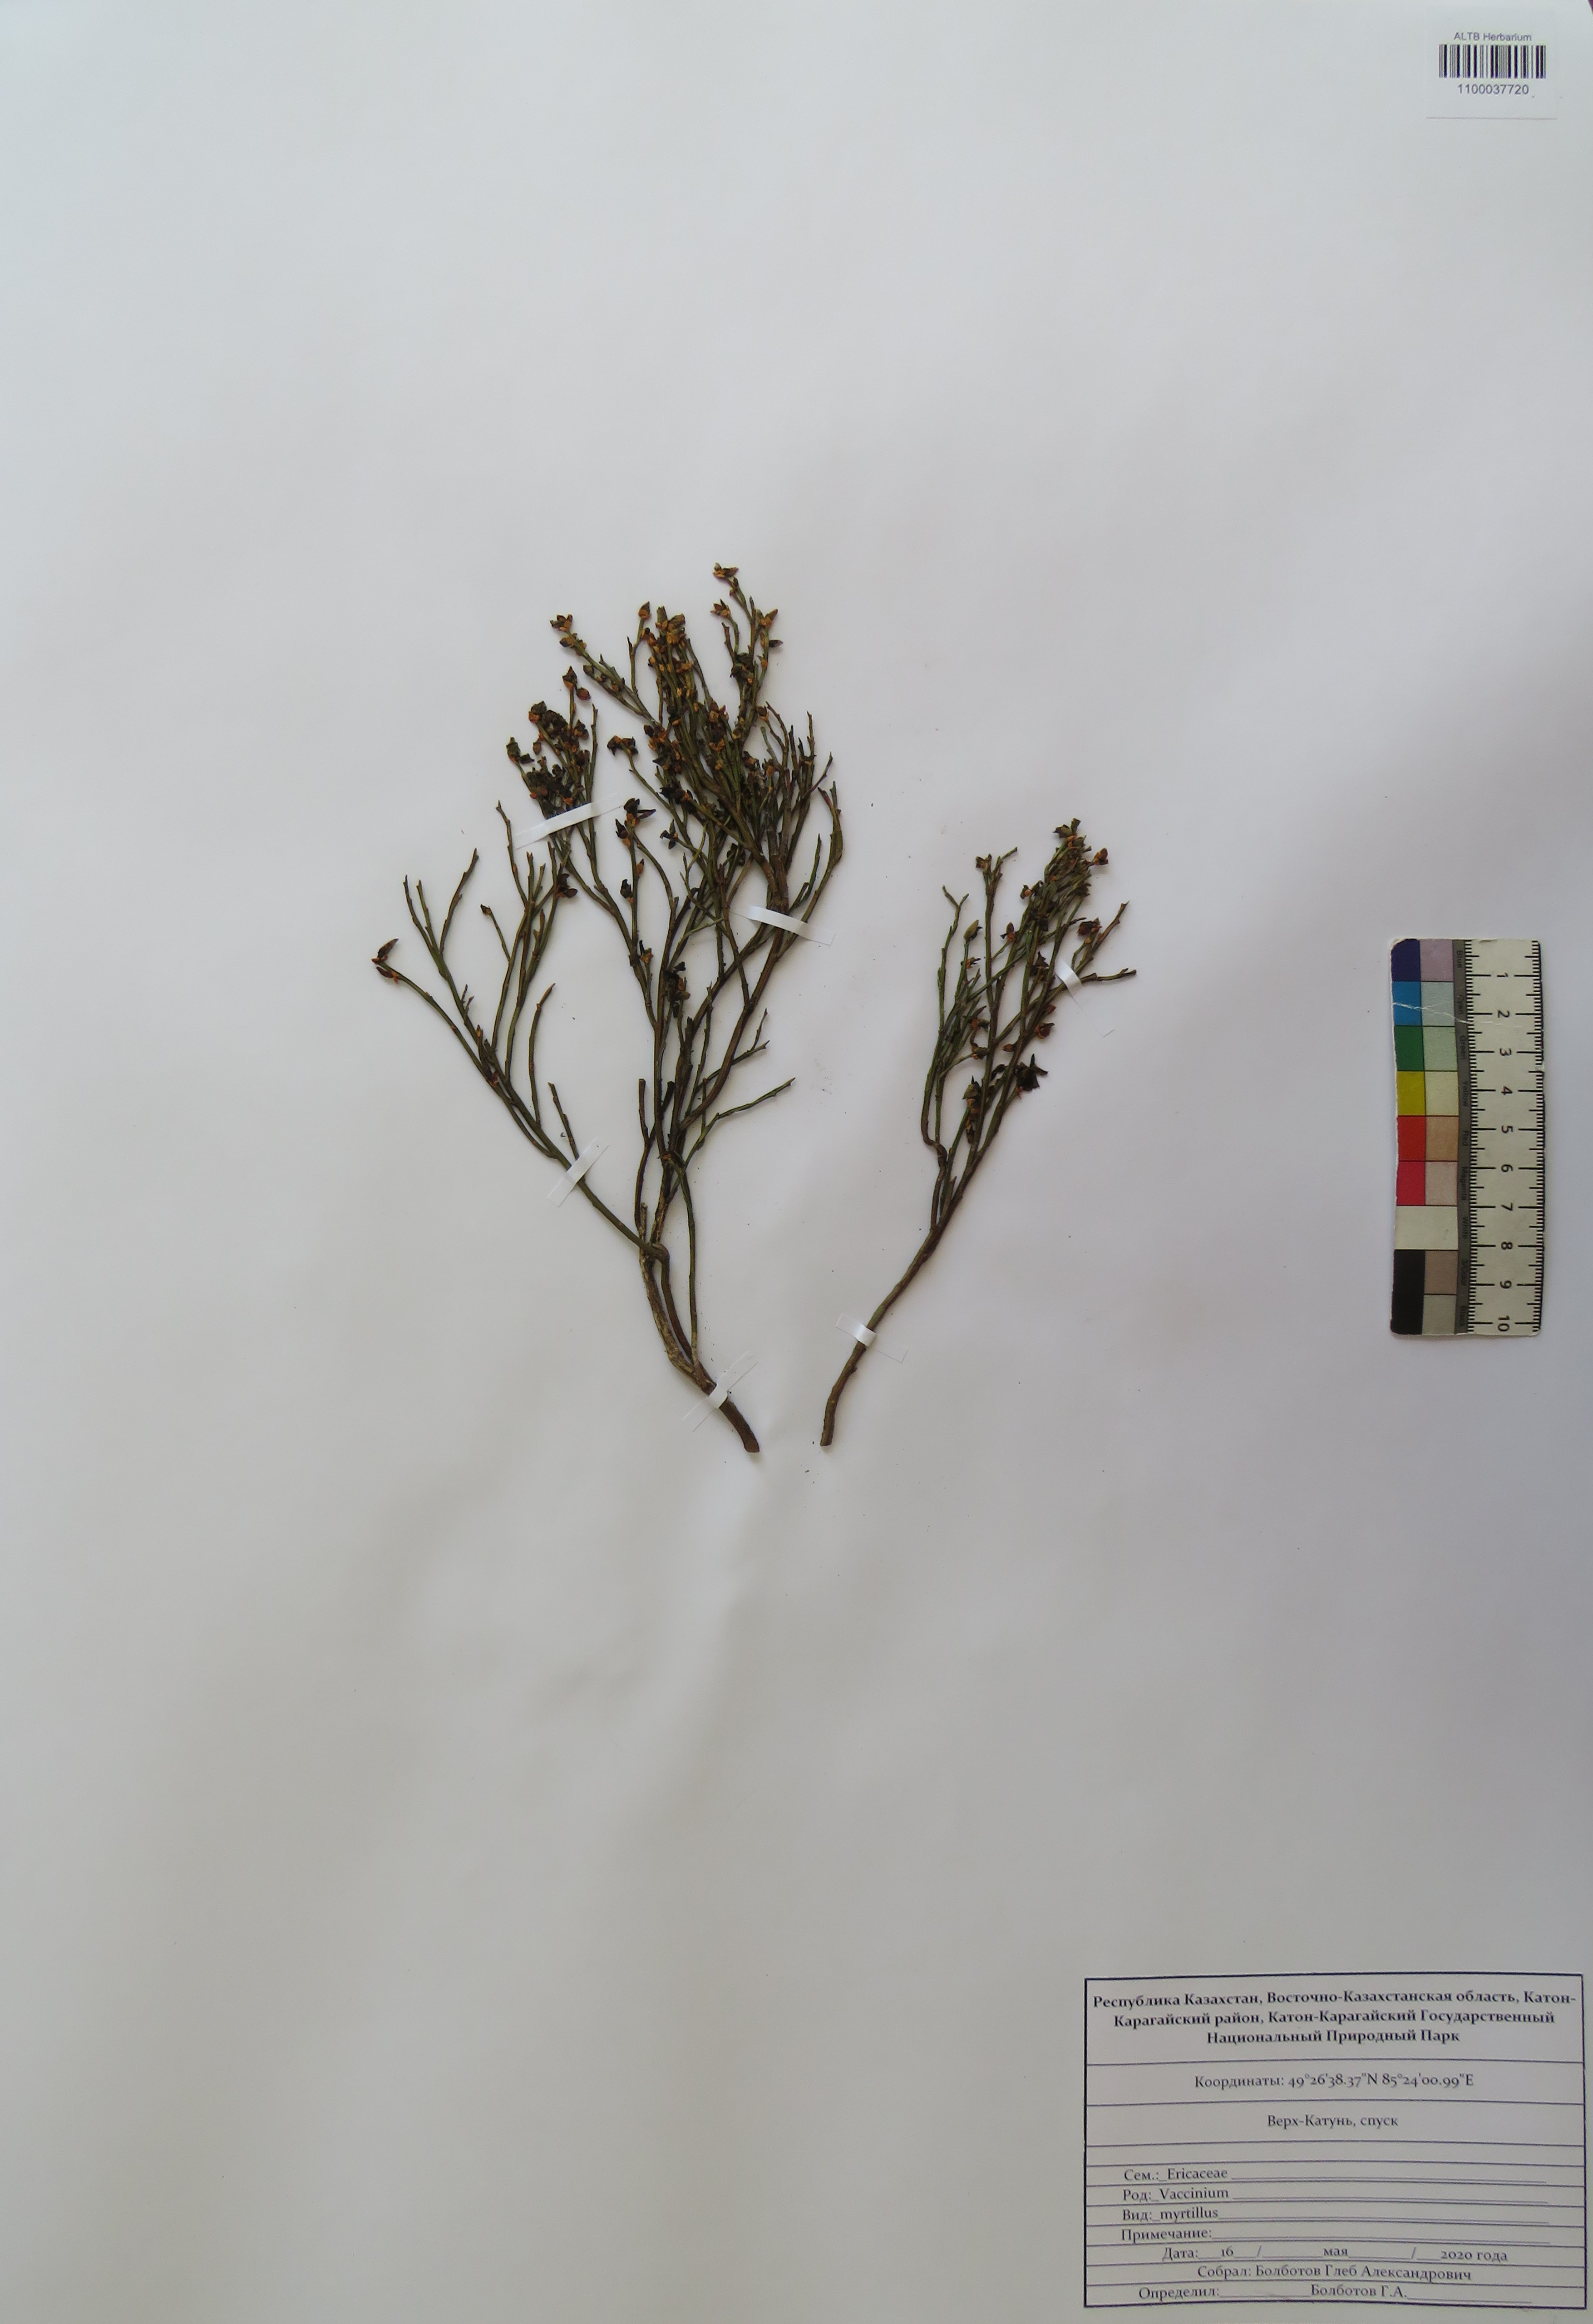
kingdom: Plantae
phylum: Tracheophyta
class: Magnoliopsida
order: Ericales
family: Ericaceae
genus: Vaccinium
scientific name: Vaccinium myrtillus
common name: Bilberry
